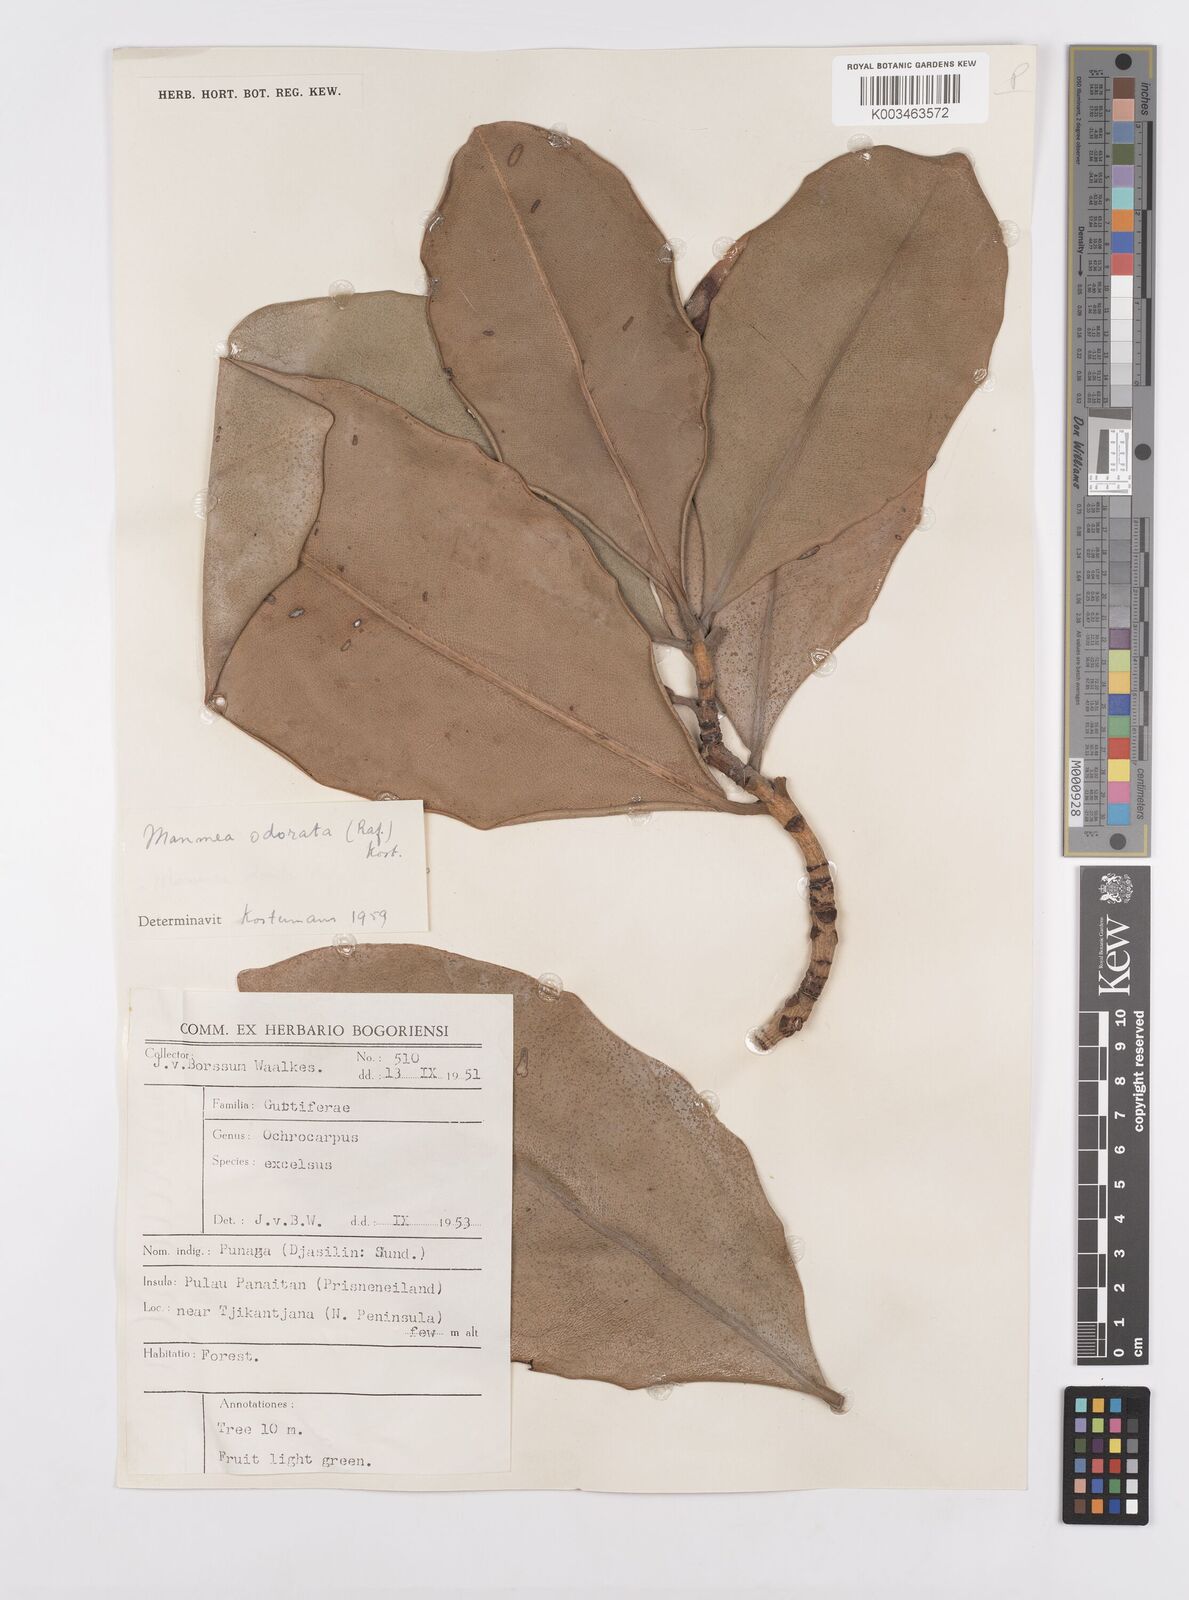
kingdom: Plantae
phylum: Tracheophyta
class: Magnoliopsida
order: Malpighiales
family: Calophyllaceae
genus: Mammea
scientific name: Mammea odorata
